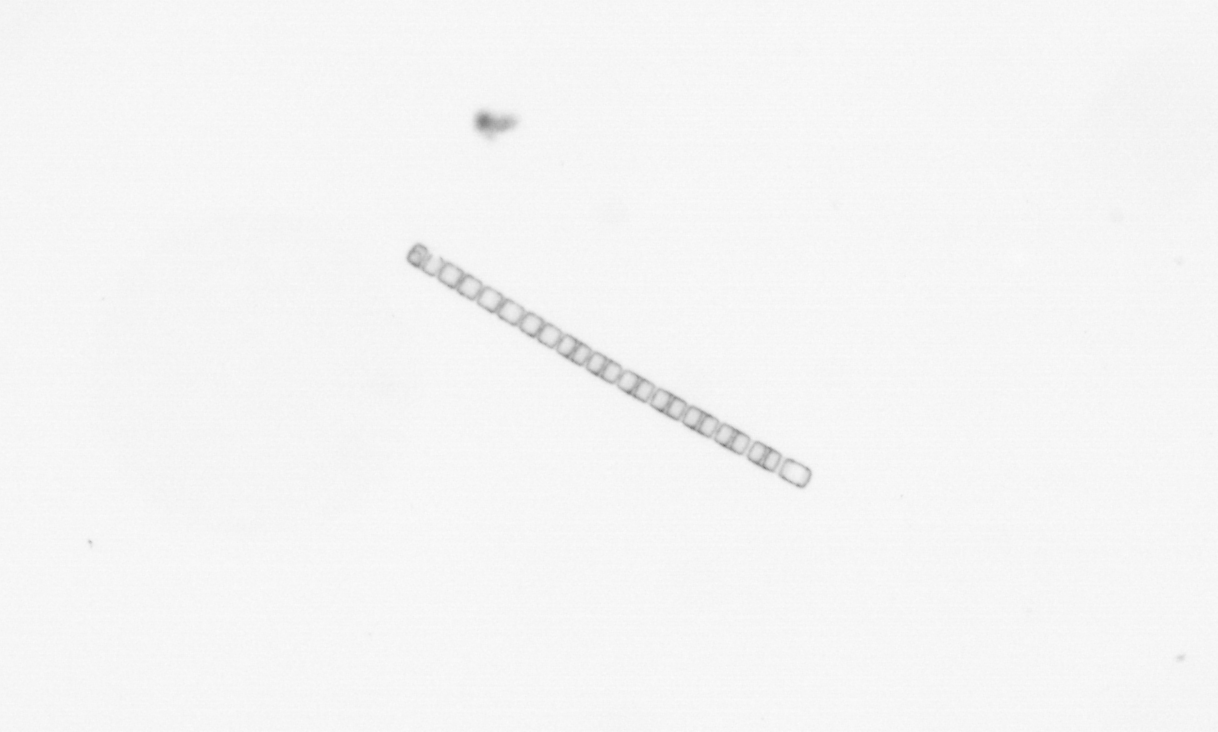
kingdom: Chromista
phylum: Ochrophyta
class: Bacillariophyceae
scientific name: Bacillariophyceae
